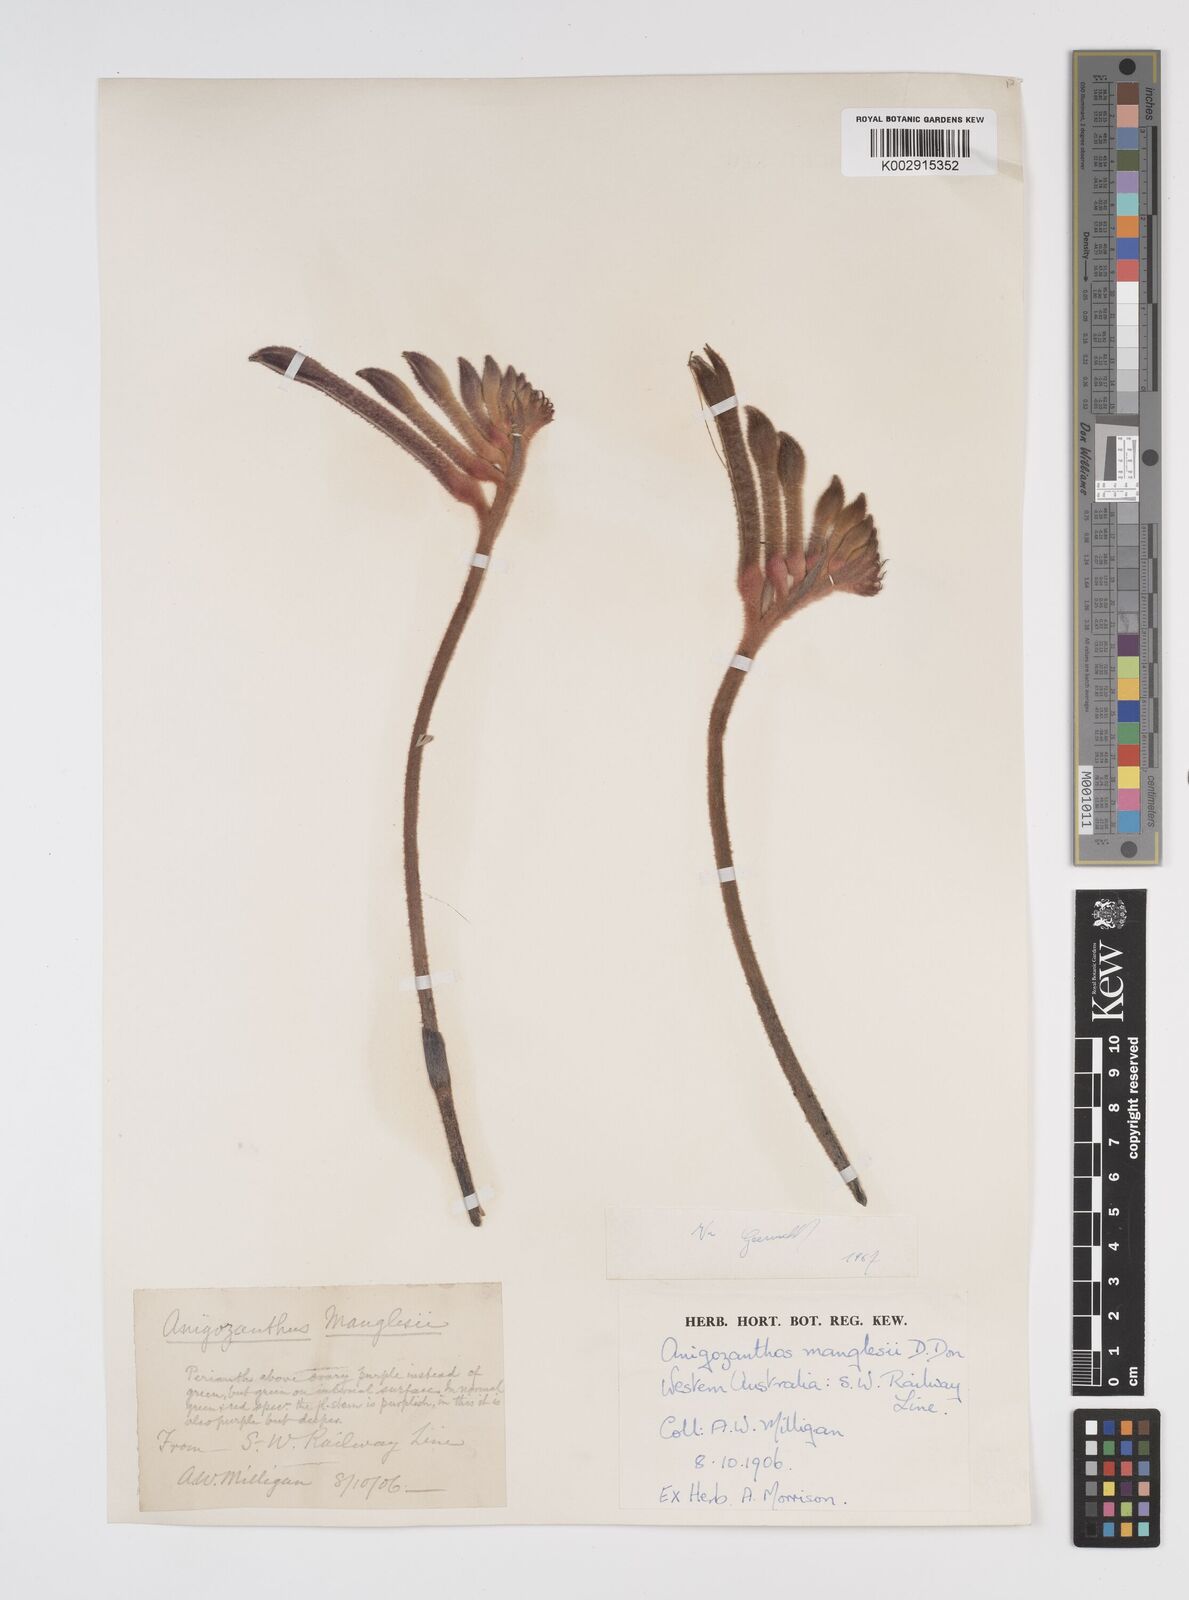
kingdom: Plantae
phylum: Tracheophyta
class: Liliopsida
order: Commelinales
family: Haemodoraceae
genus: Anigozanthos
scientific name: Anigozanthos manglesii
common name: Mangles's kangaroo-paw
